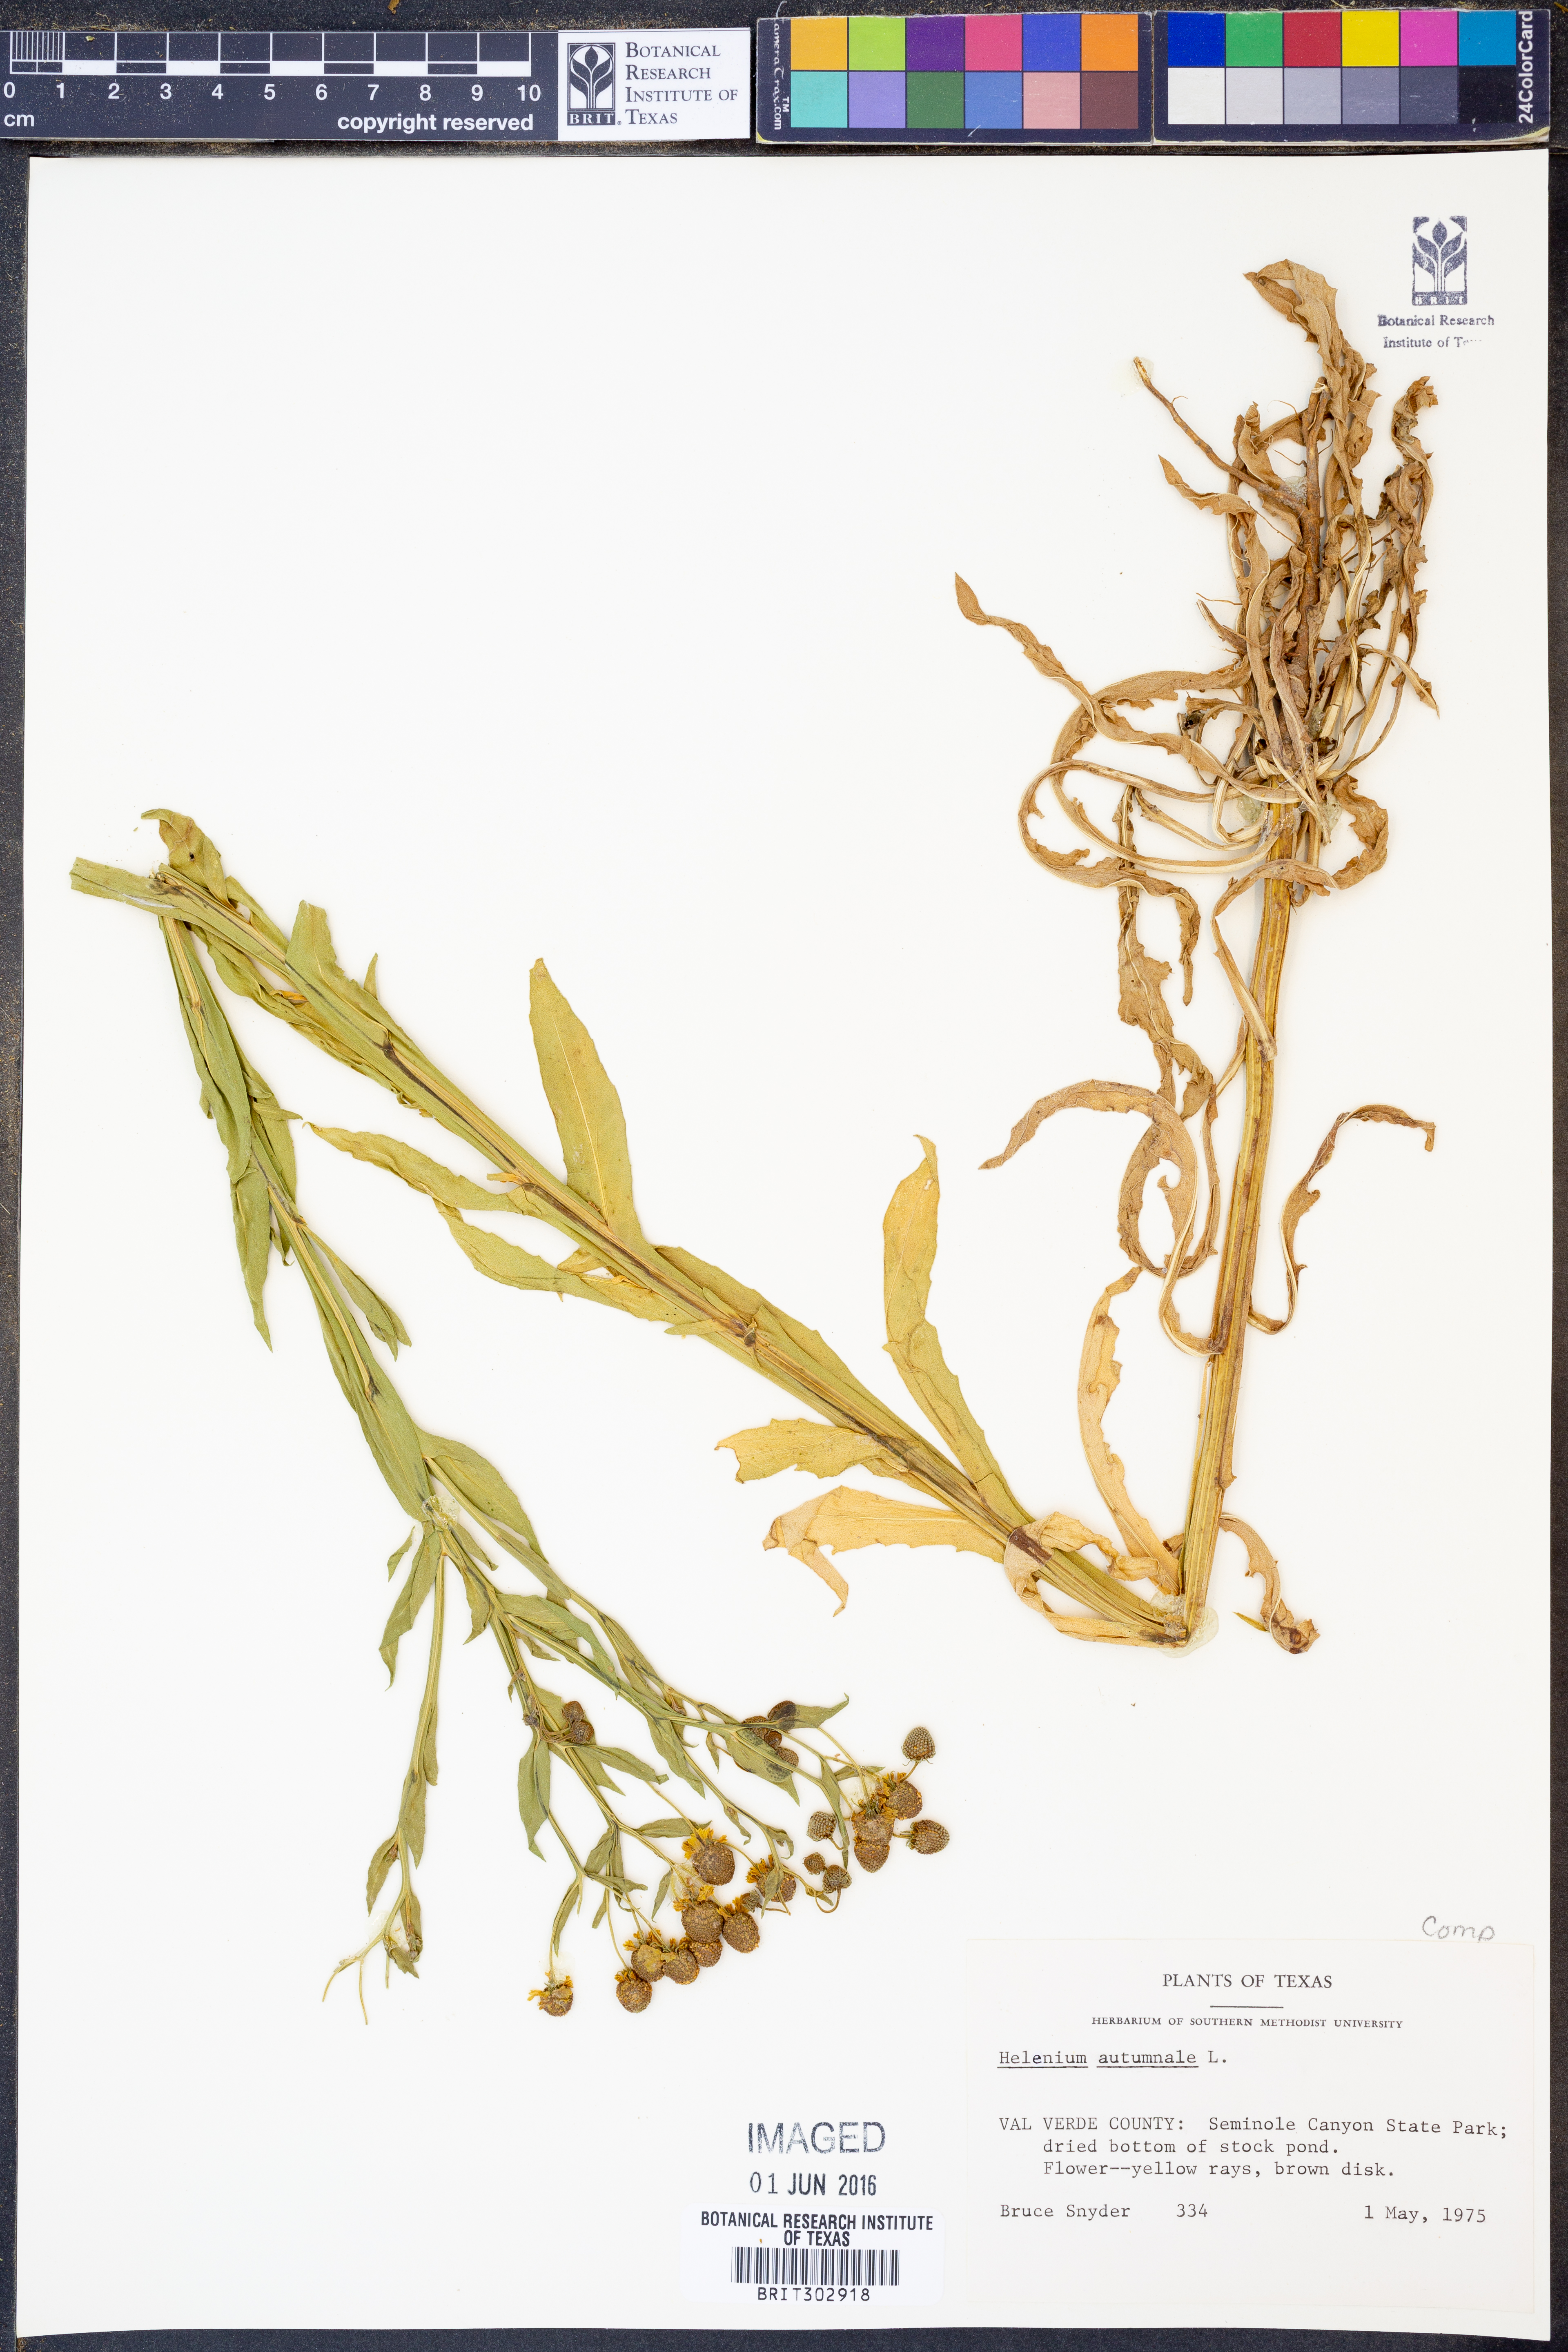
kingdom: Plantae
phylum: Tracheophyta
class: Magnoliopsida
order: Asterales
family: Asteraceae
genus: Helenium
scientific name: Helenium autumnale
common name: Sneezeweed
